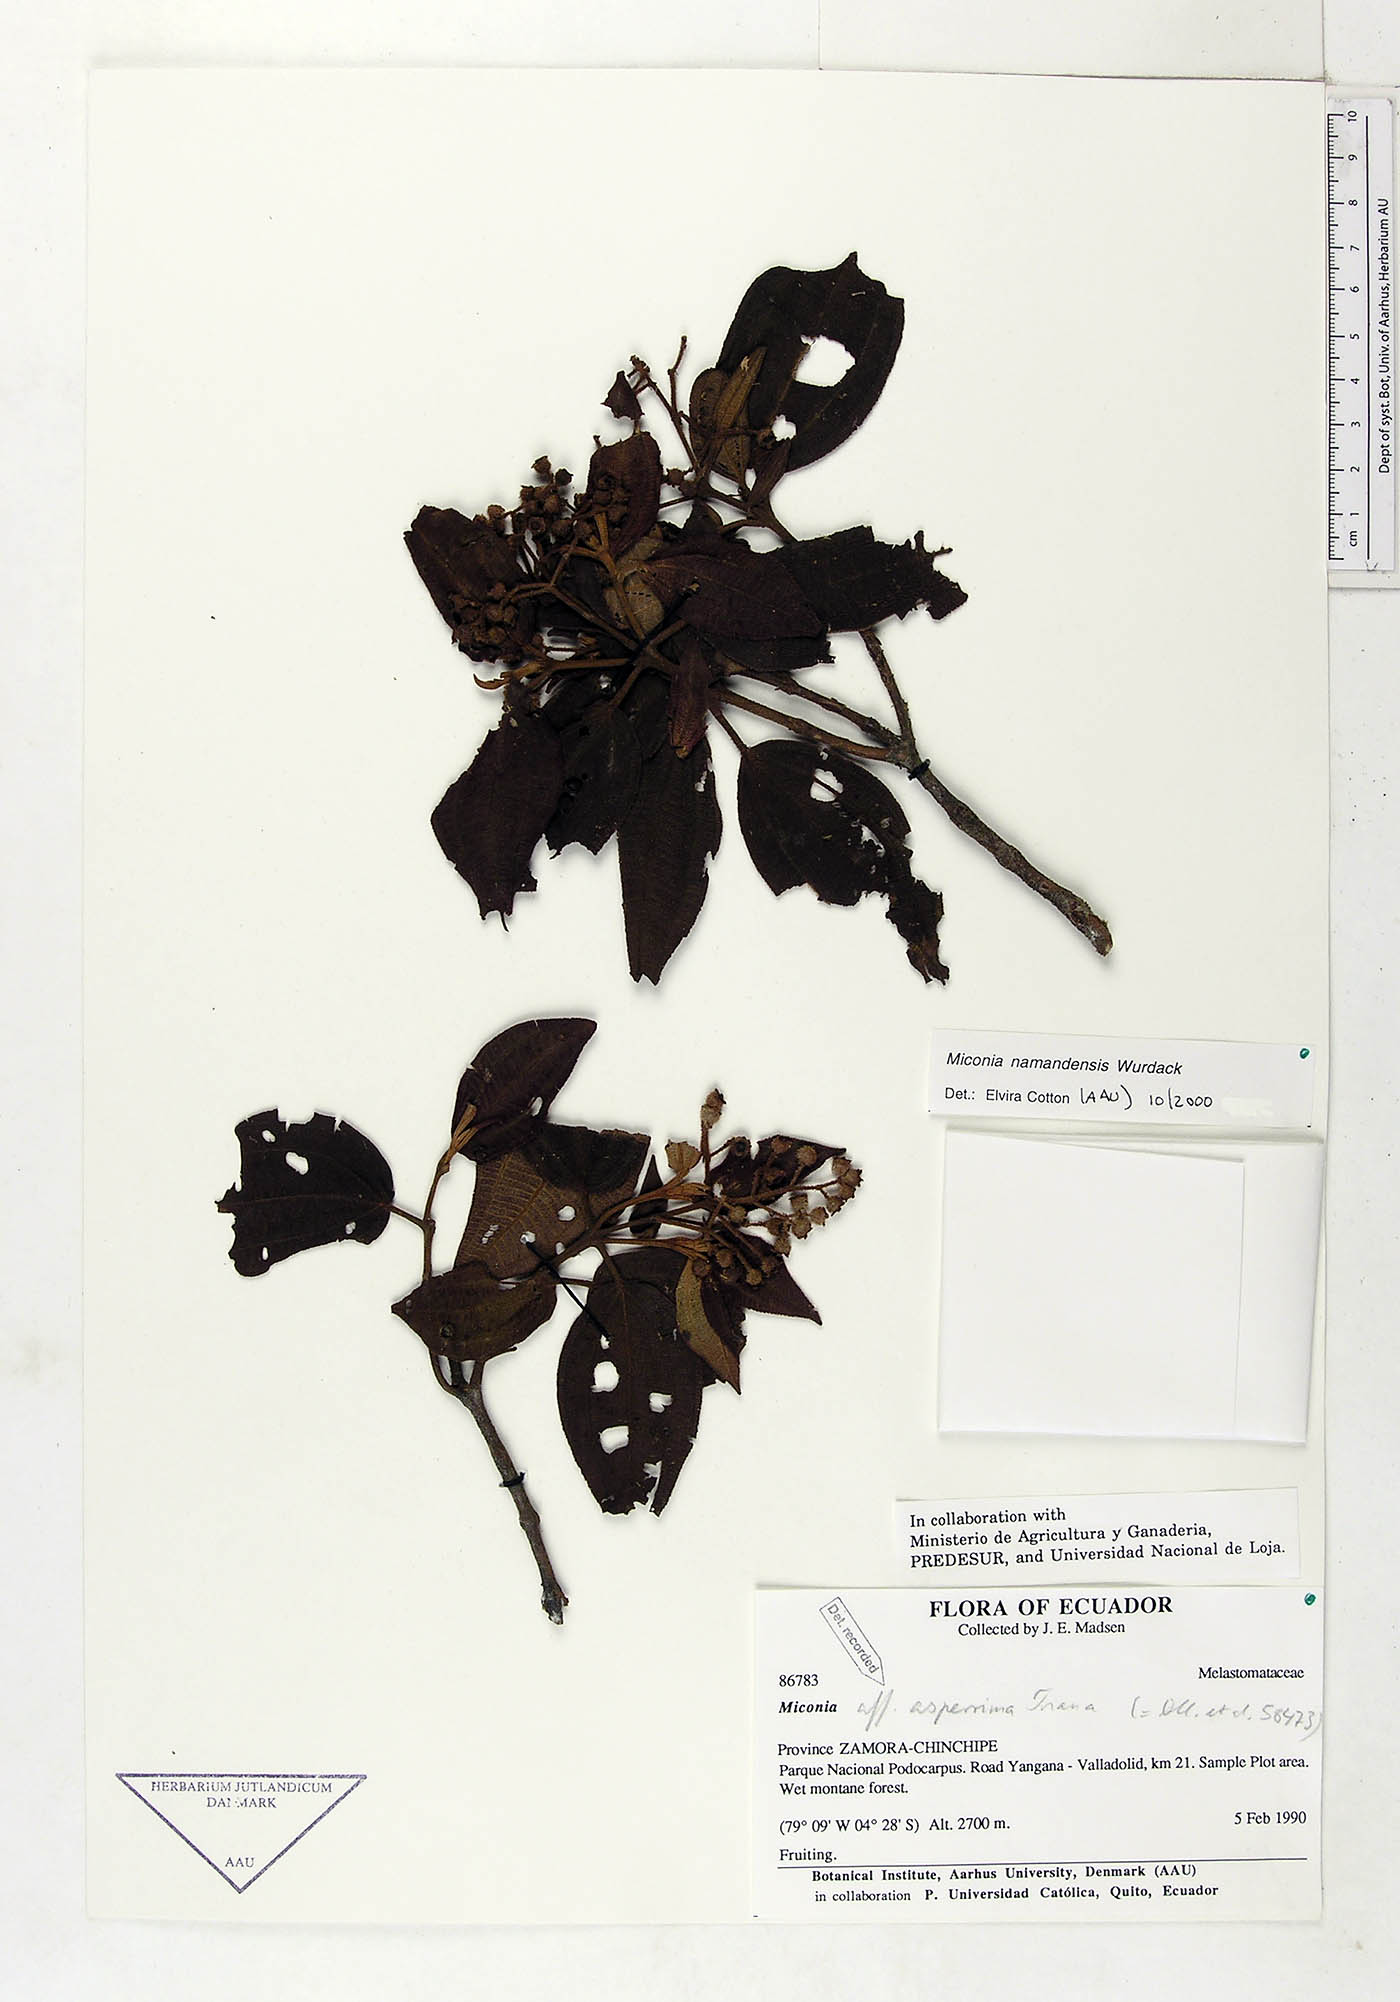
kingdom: Plantae
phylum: Tracheophyta
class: Magnoliopsida
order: Myrtales
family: Melastomataceae
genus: Miconia
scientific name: Miconia namandensis
